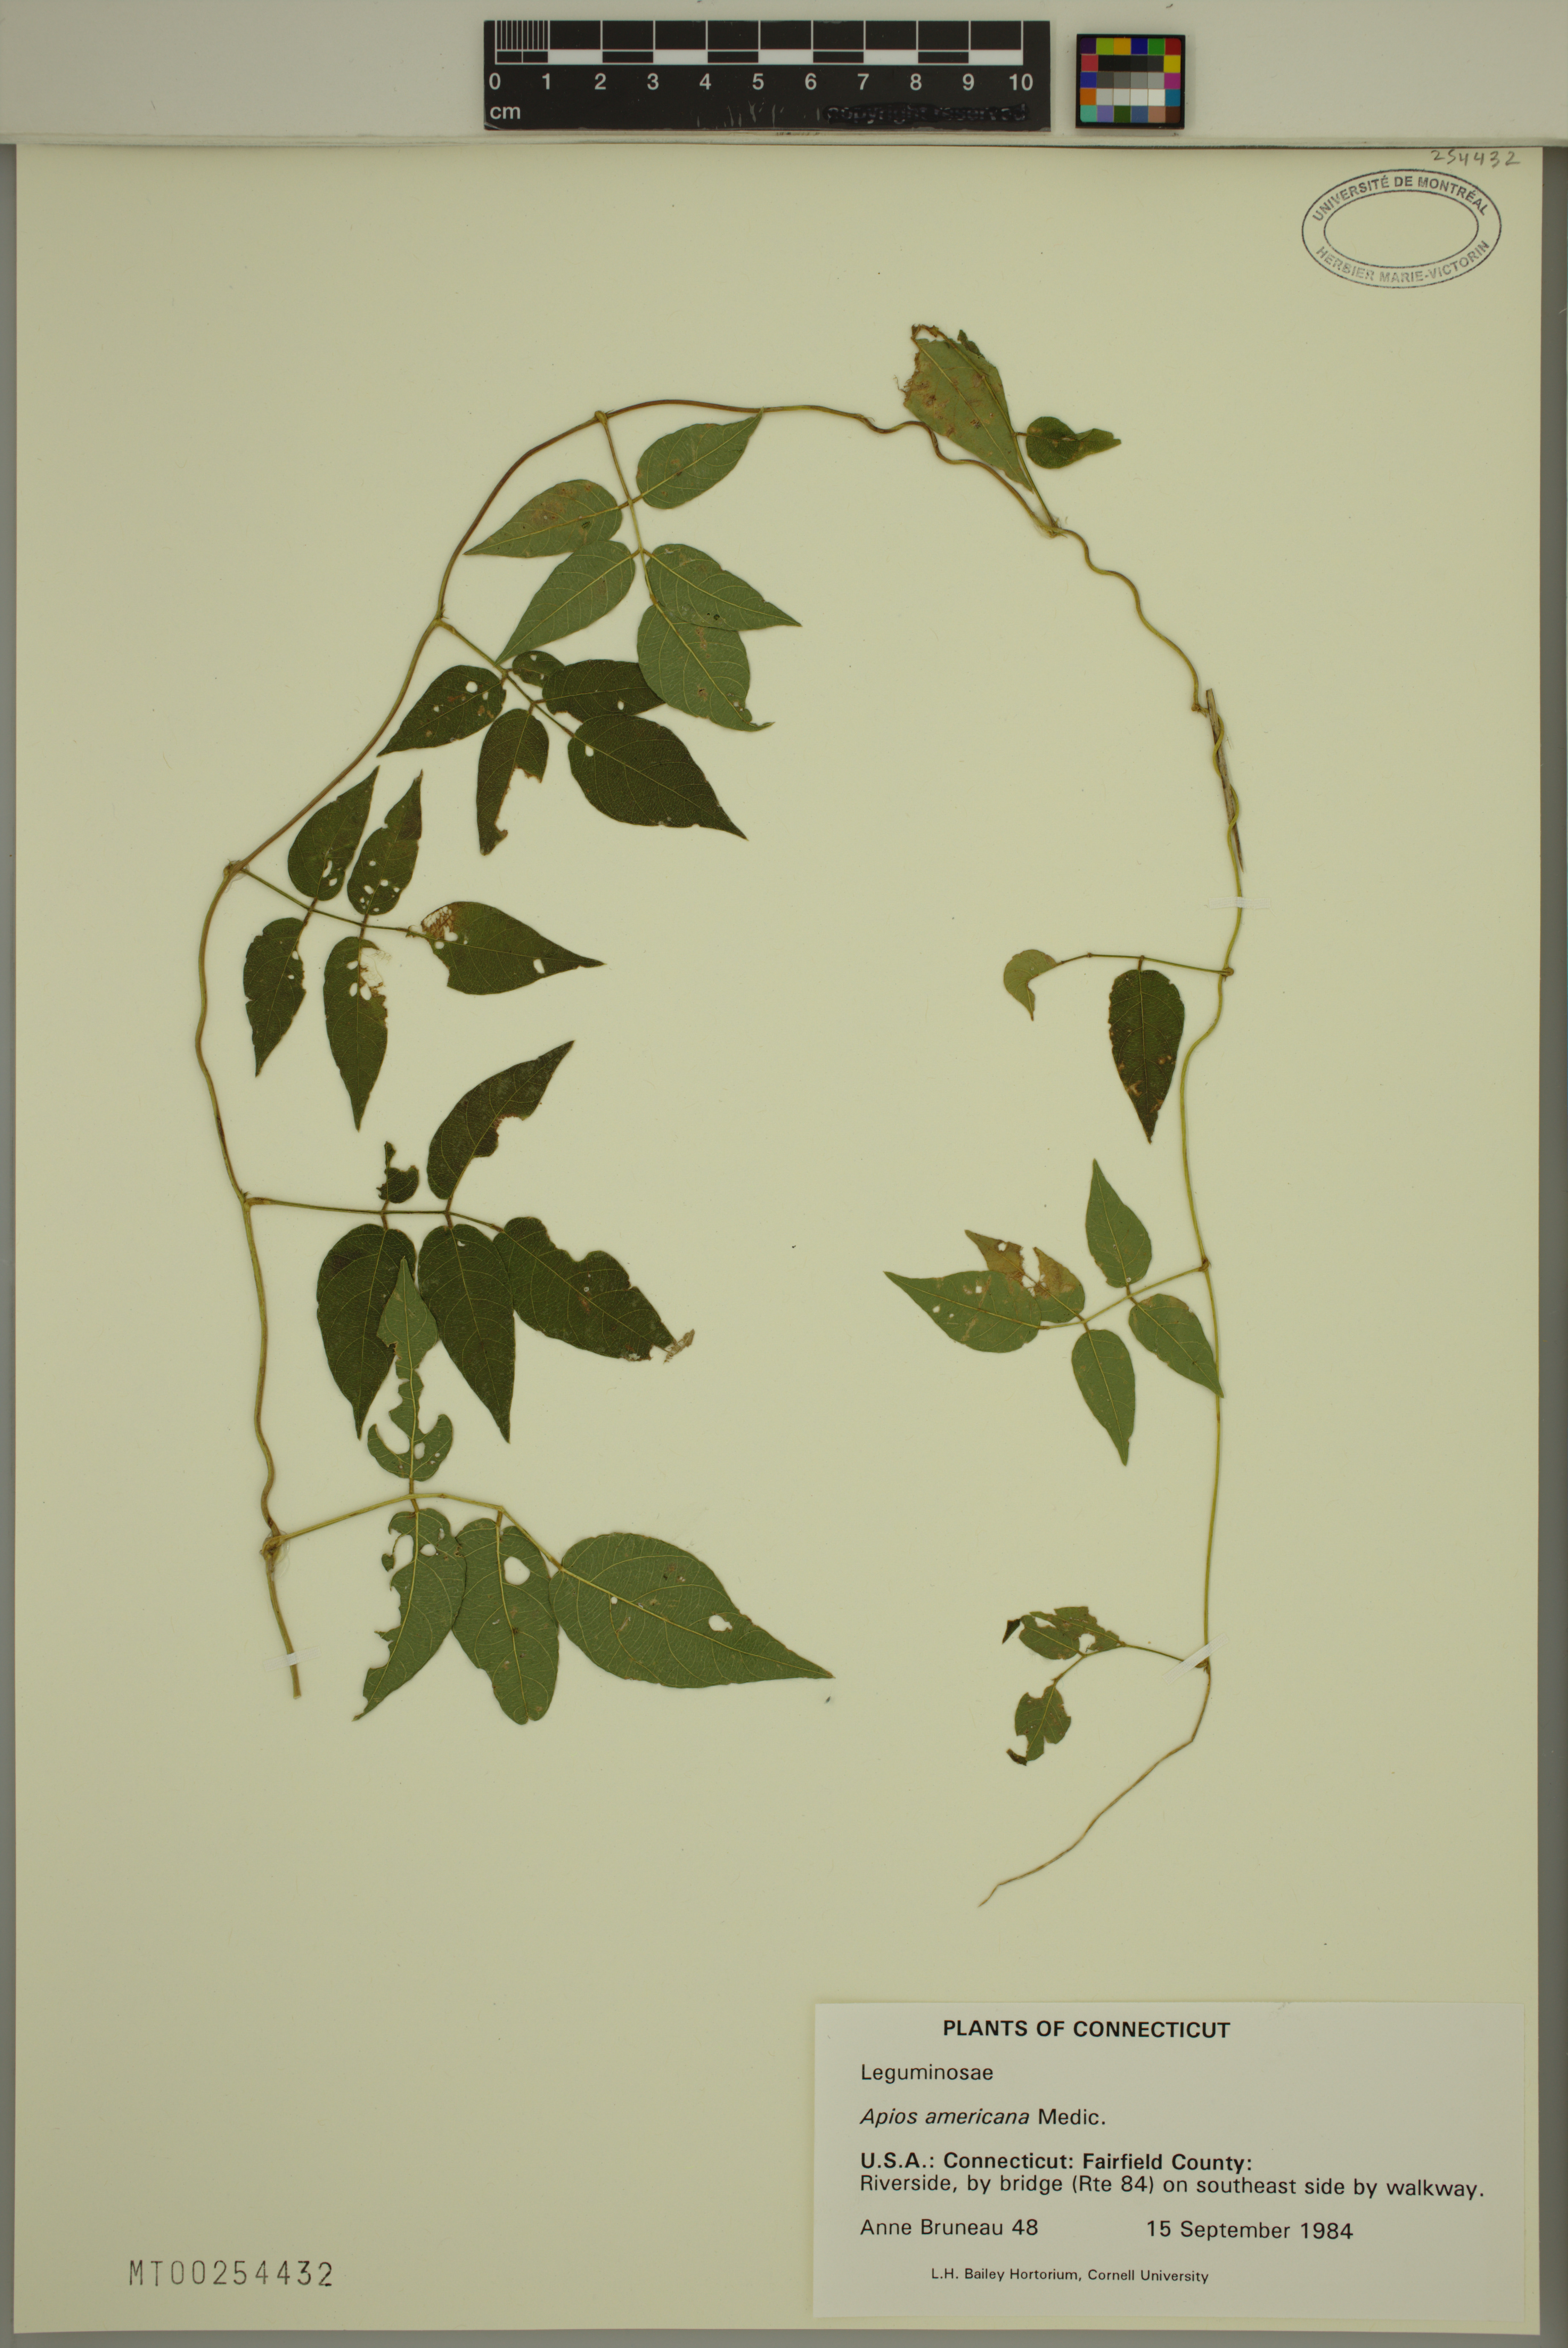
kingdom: Plantae
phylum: Tracheophyta
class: Magnoliopsida
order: Fabales
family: Fabaceae
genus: Apios
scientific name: Apios americana
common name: American potato-bean
